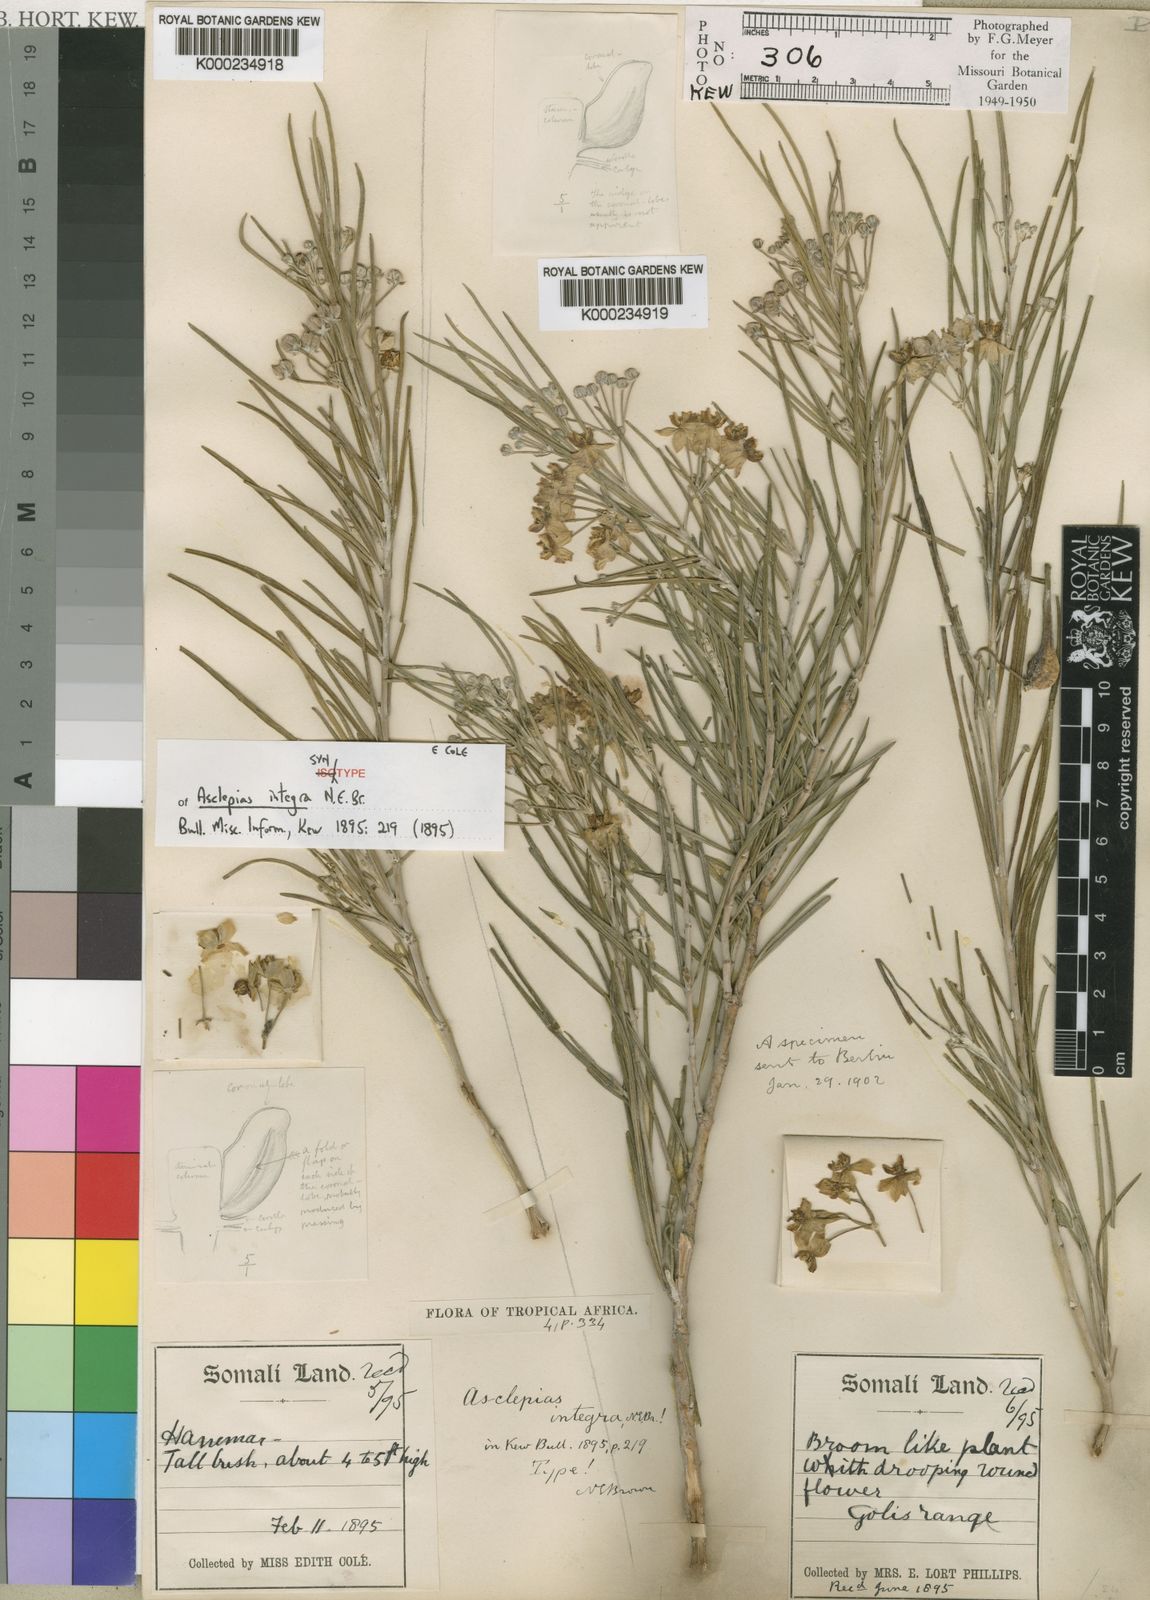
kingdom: Plantae
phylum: Tracheophyta
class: Magnoliopsida
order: Gentianales
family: Apocynaceae
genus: Gomphocarpus
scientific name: Gomphocarpus integer
